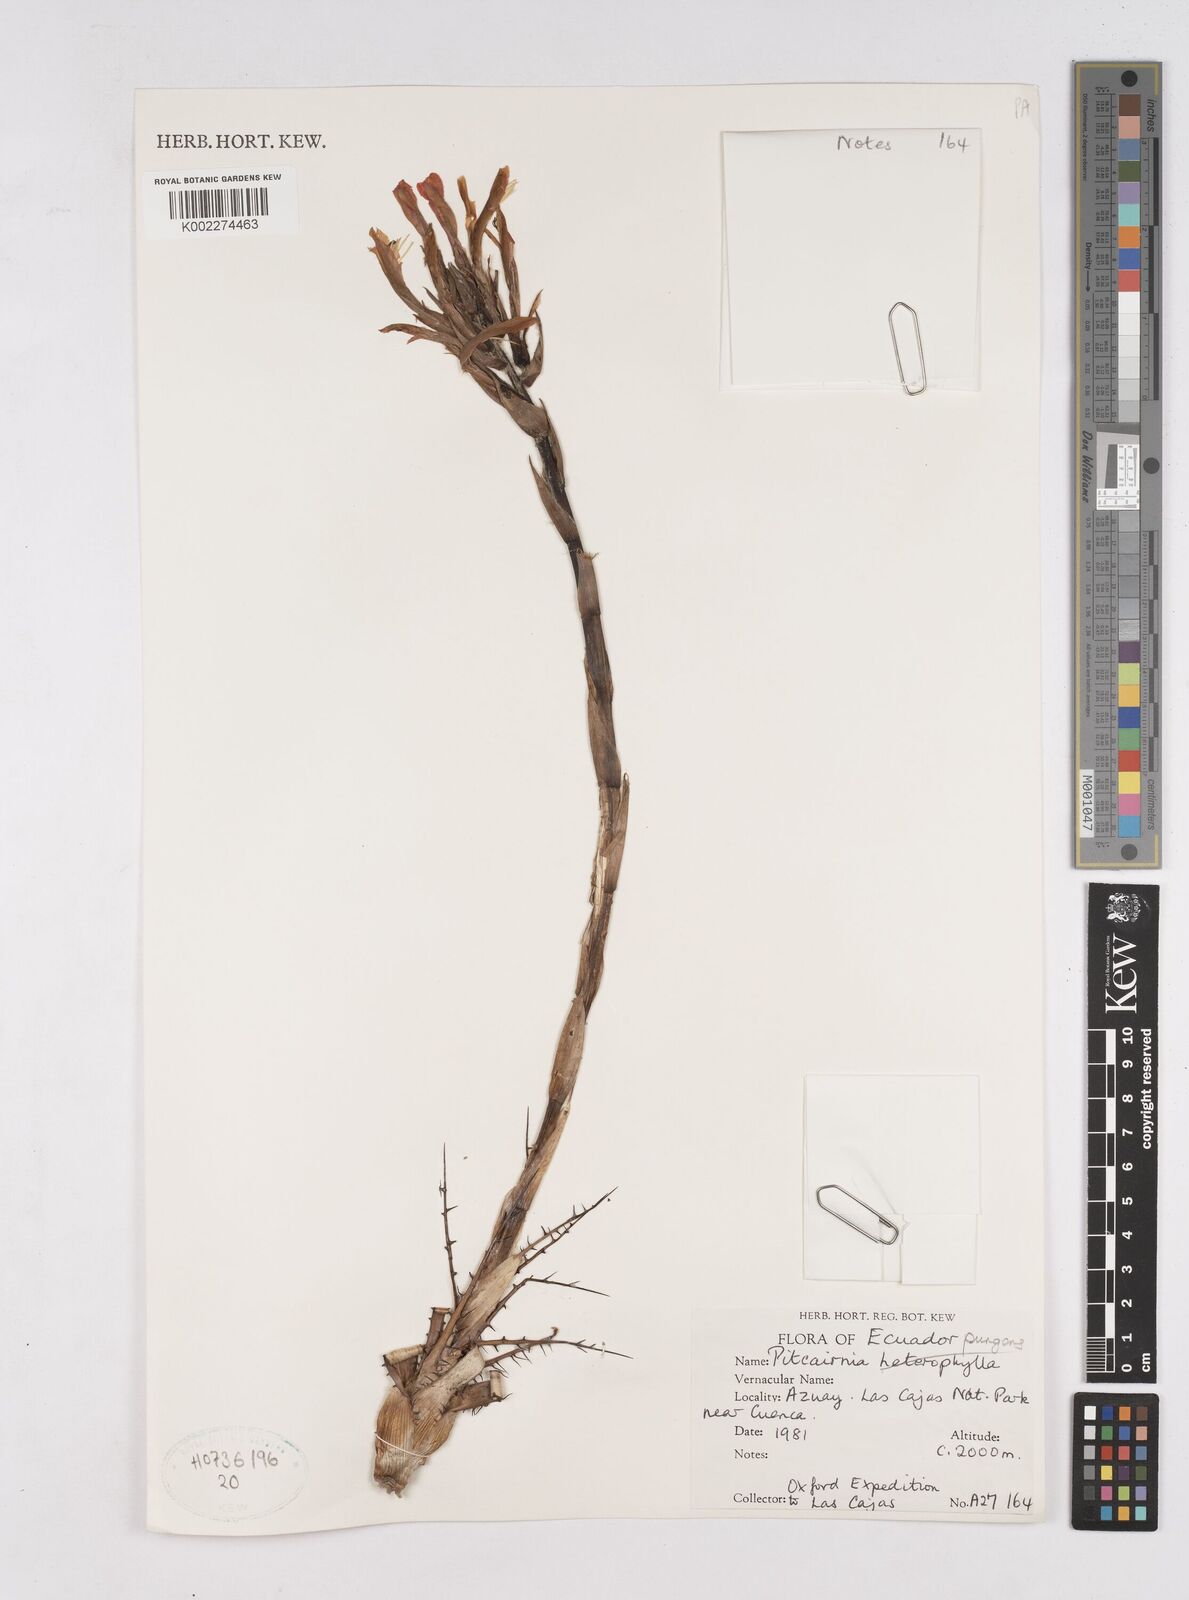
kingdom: Plantae
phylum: Tracheophyta
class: Liliopsida
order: Poales
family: Bromeliaceae
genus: Pitcairnia
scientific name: Pitcairnia pungens
